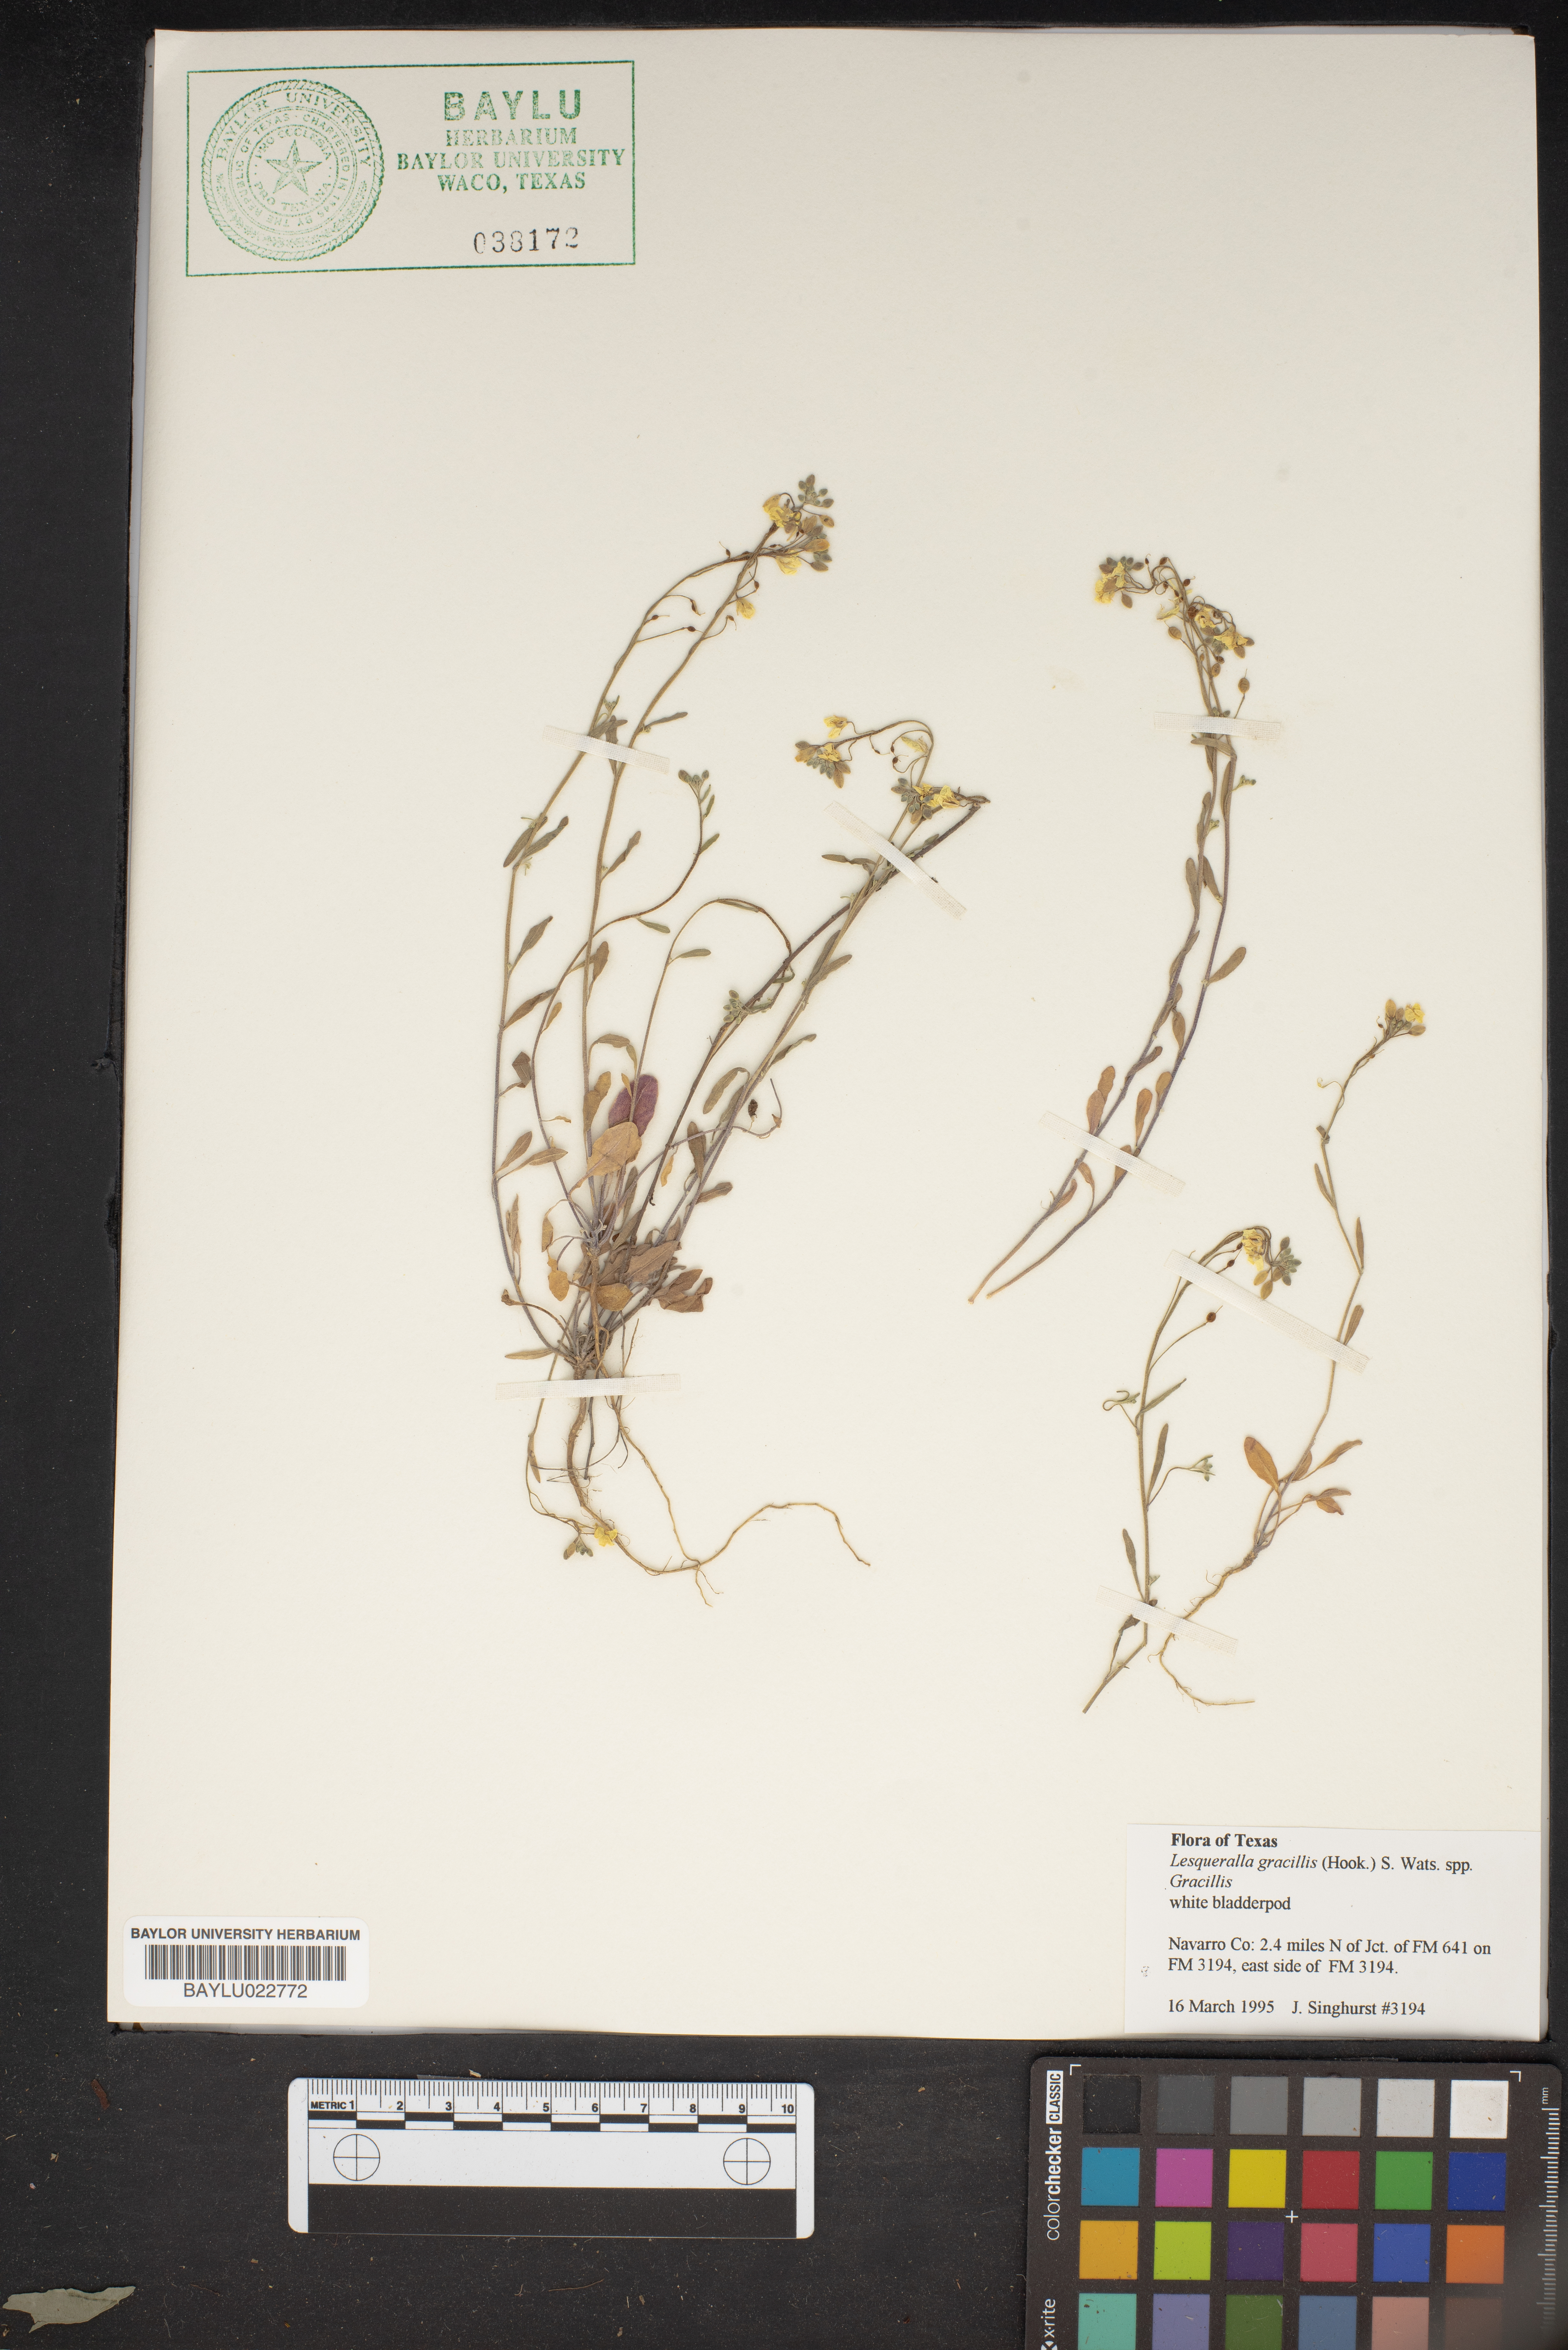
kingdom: Plantae
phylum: Tracheophyta
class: Magnoliopsida
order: Brassicales
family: Brassicaceae
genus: Physaria
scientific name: Physaria gracilis
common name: Spreading bladderpod
